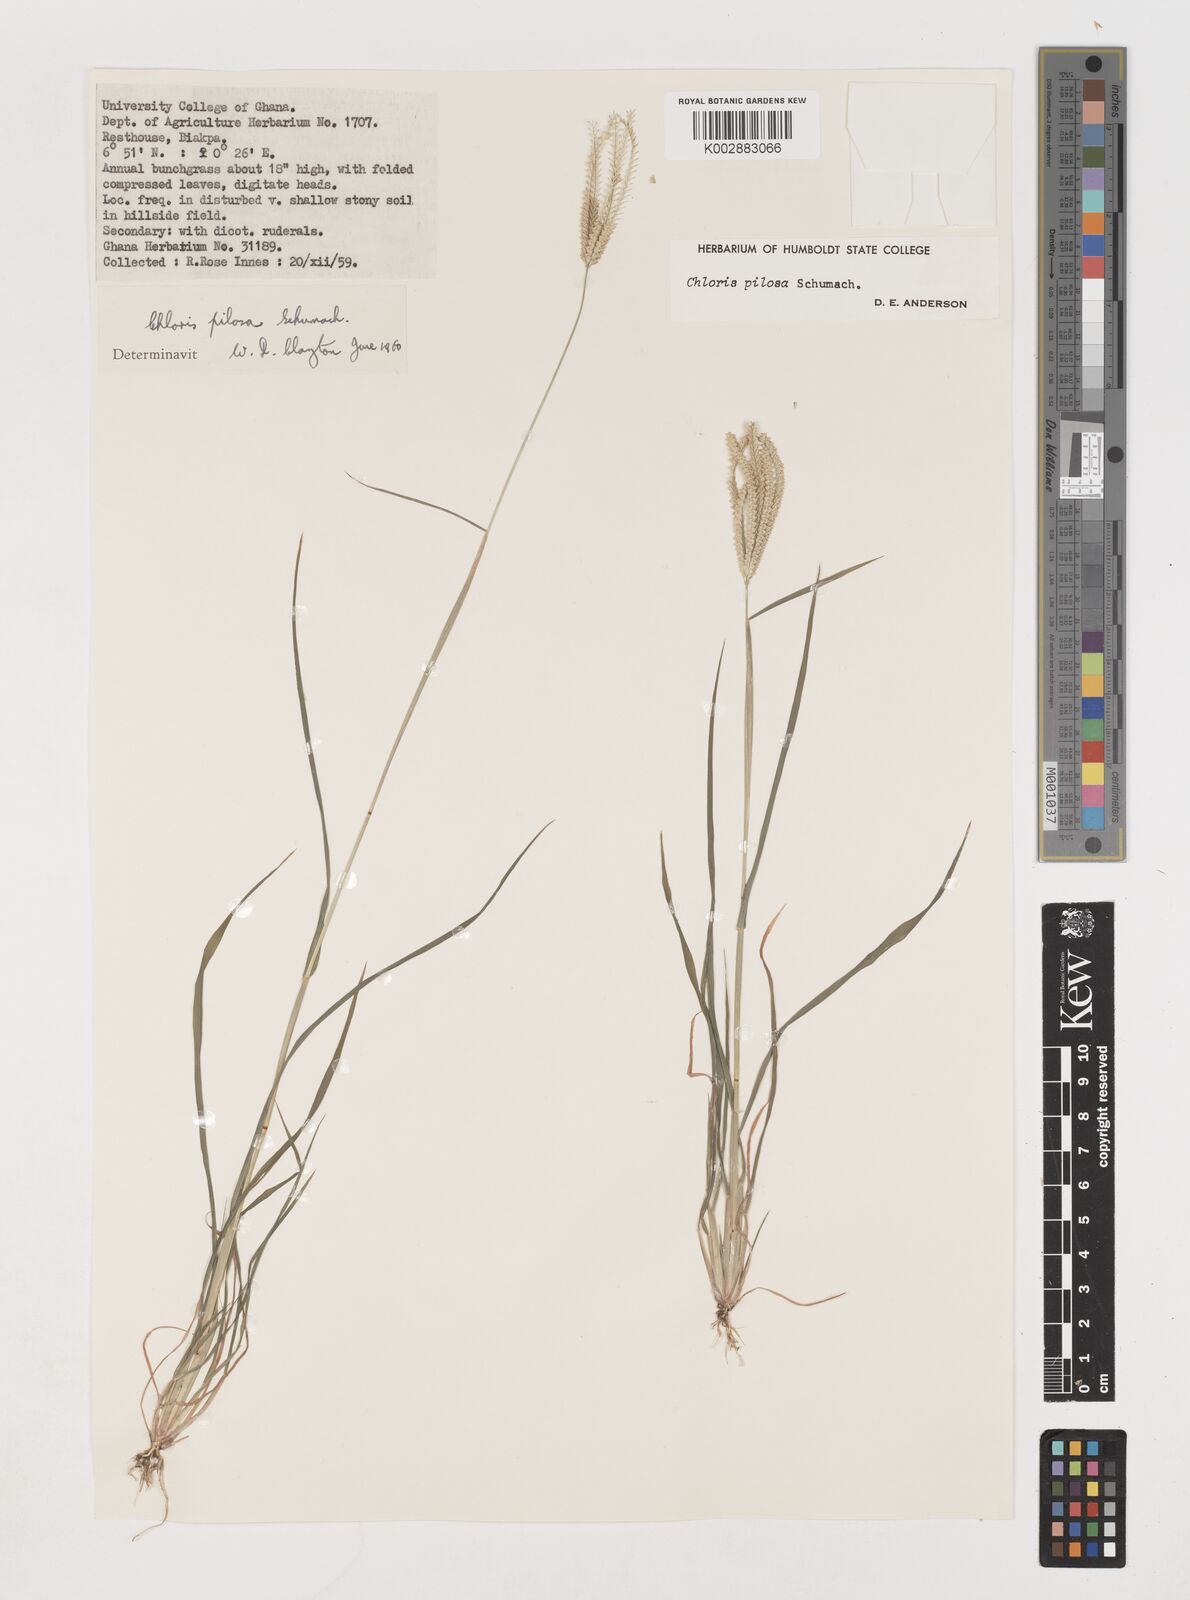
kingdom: Plantae
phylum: Tracheophyta
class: Liliopsida
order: Poales
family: Poaceae
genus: Chloris
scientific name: Chloris pilosa
